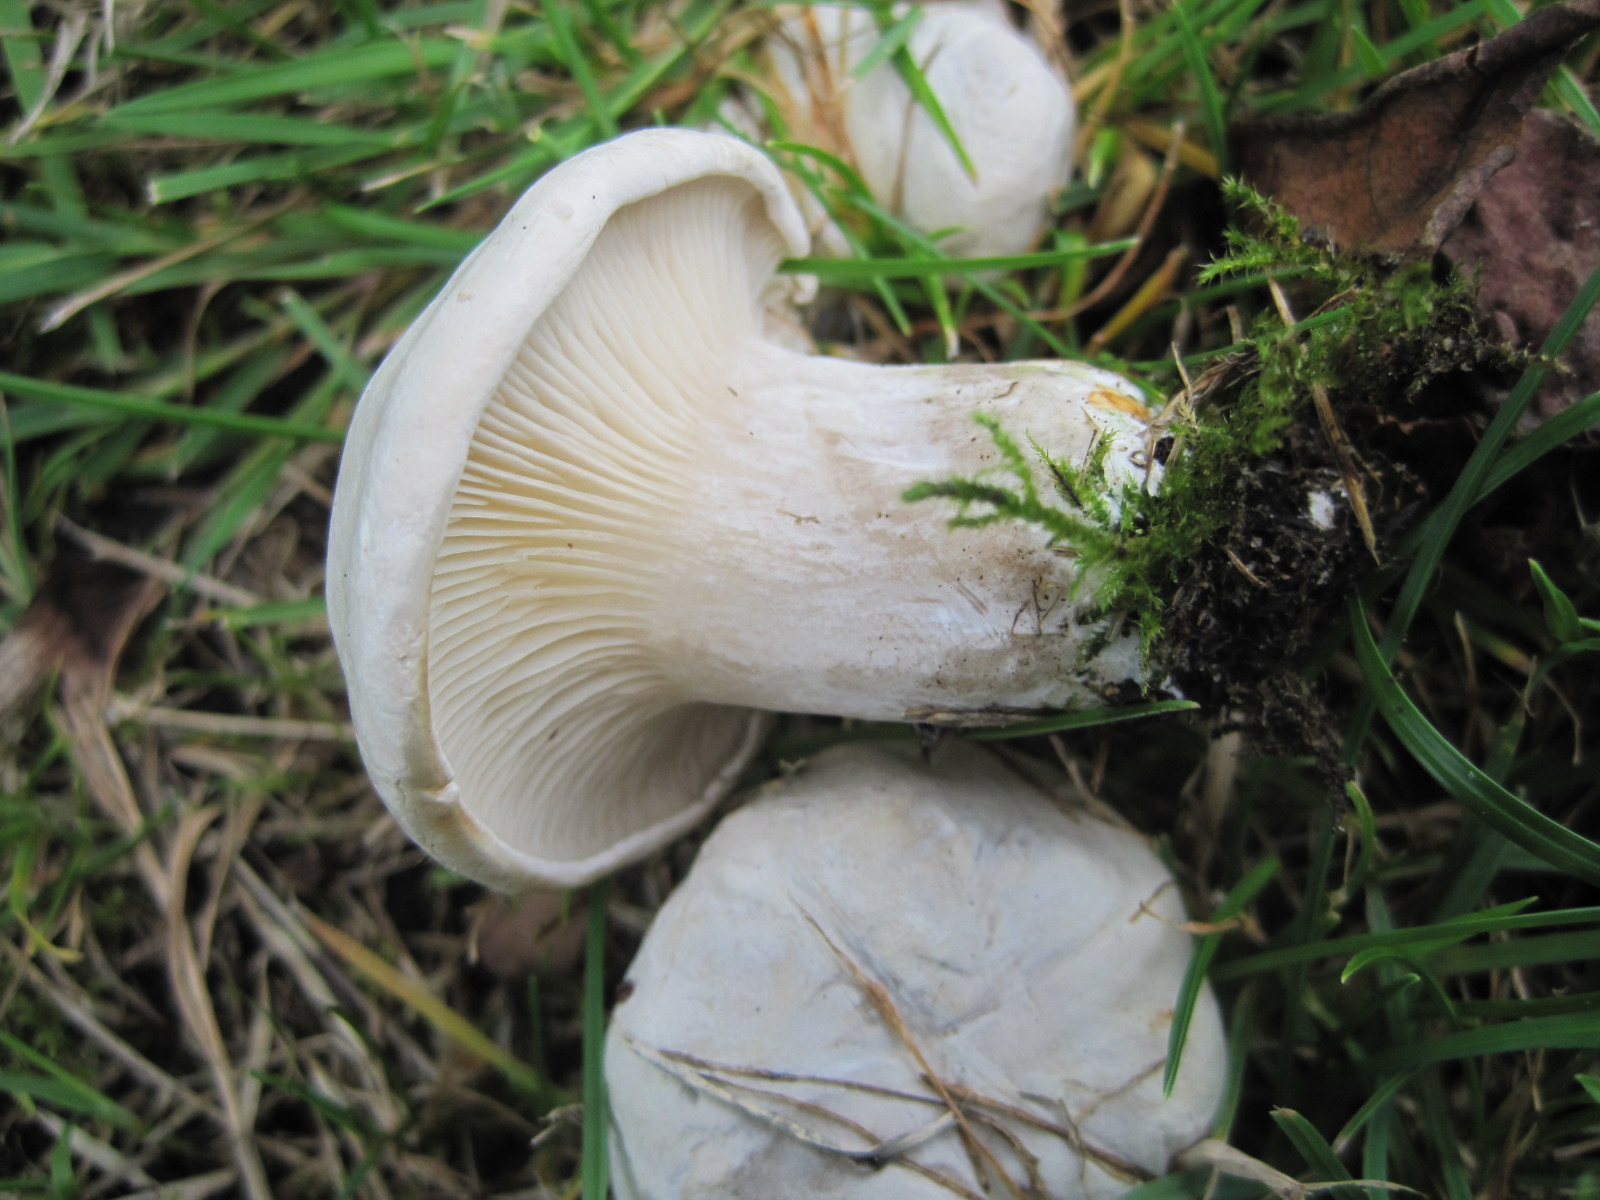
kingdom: Fungi
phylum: Basidiomycota
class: Agaricomycetes
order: Agaricales
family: Entolomataceae
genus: Clitopilus
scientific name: Clitopilus prunulus
